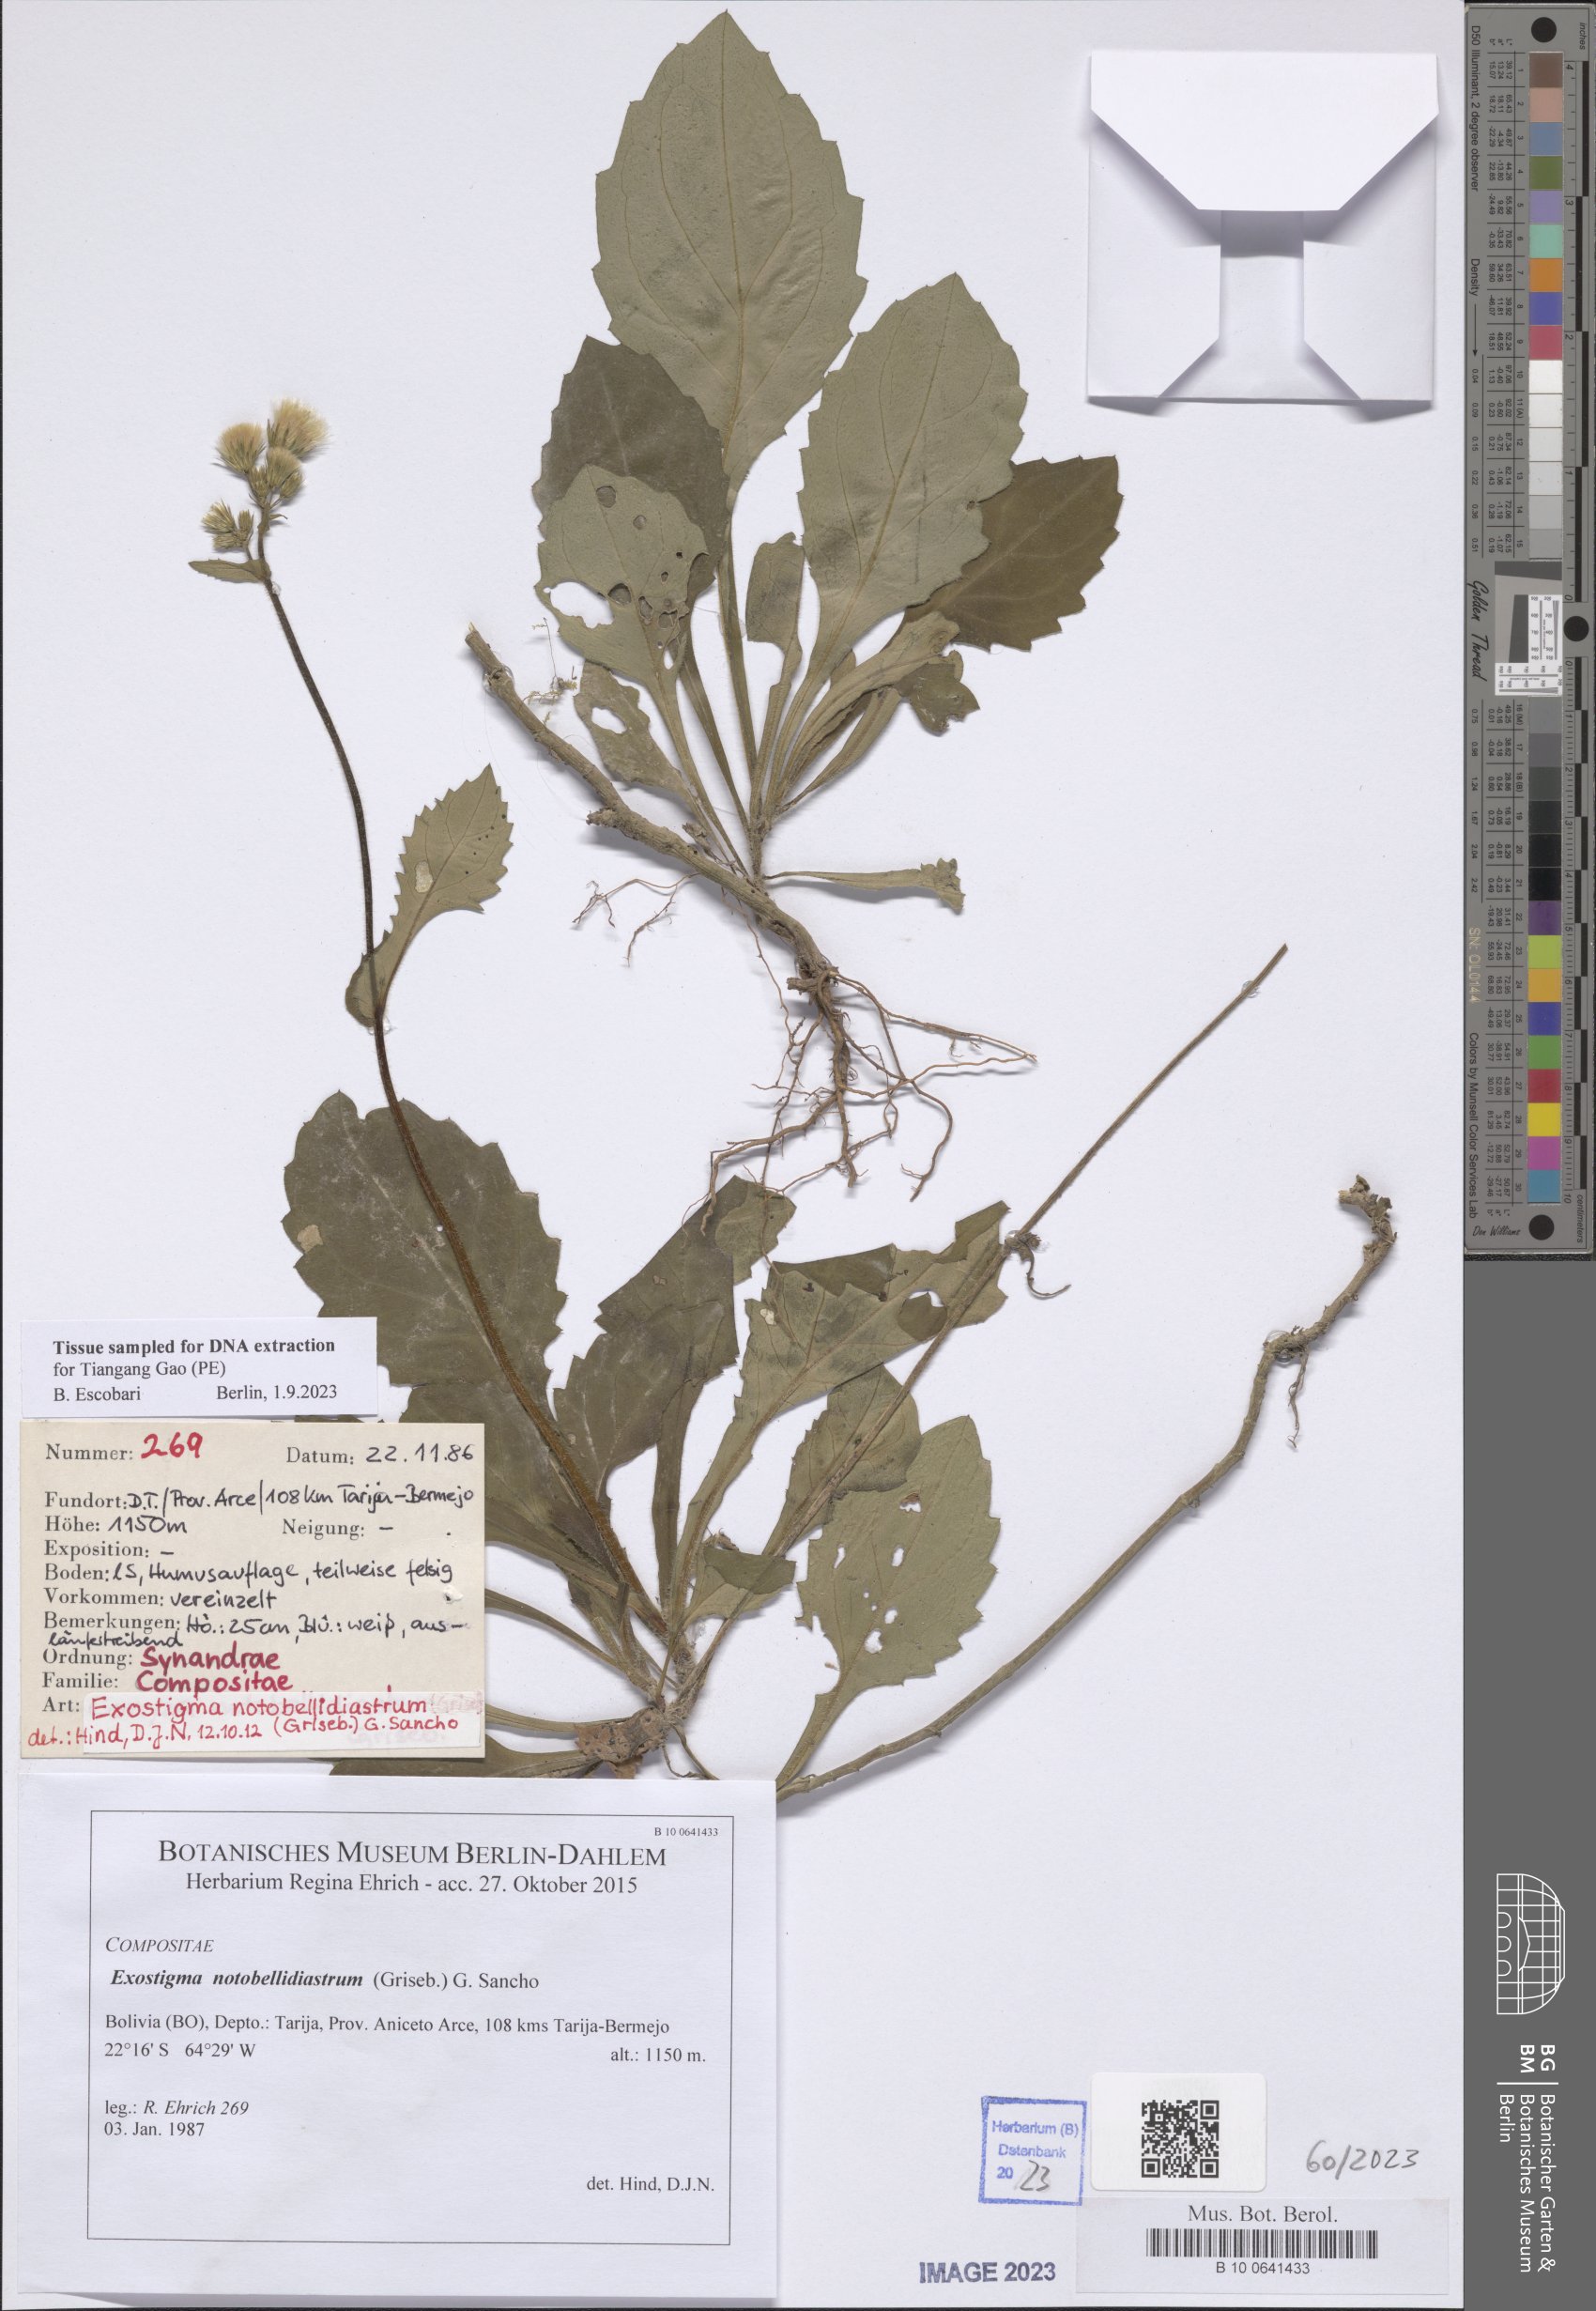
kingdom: Plantae
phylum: Tracheophyta
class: Magnoliopsida
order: Asterales
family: Asteraceae
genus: Exostigma
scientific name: Exostigma notobellidiastrum
